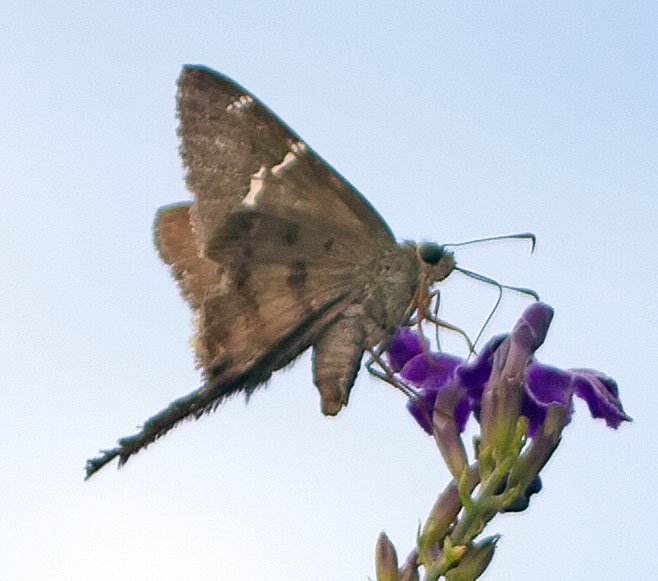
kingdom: Animalia
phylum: Arthropoda
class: Insecta
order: Lepidoptera
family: Hesperiidae
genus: Urbanus
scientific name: Urbanus teleus
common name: Teleus Longtail
